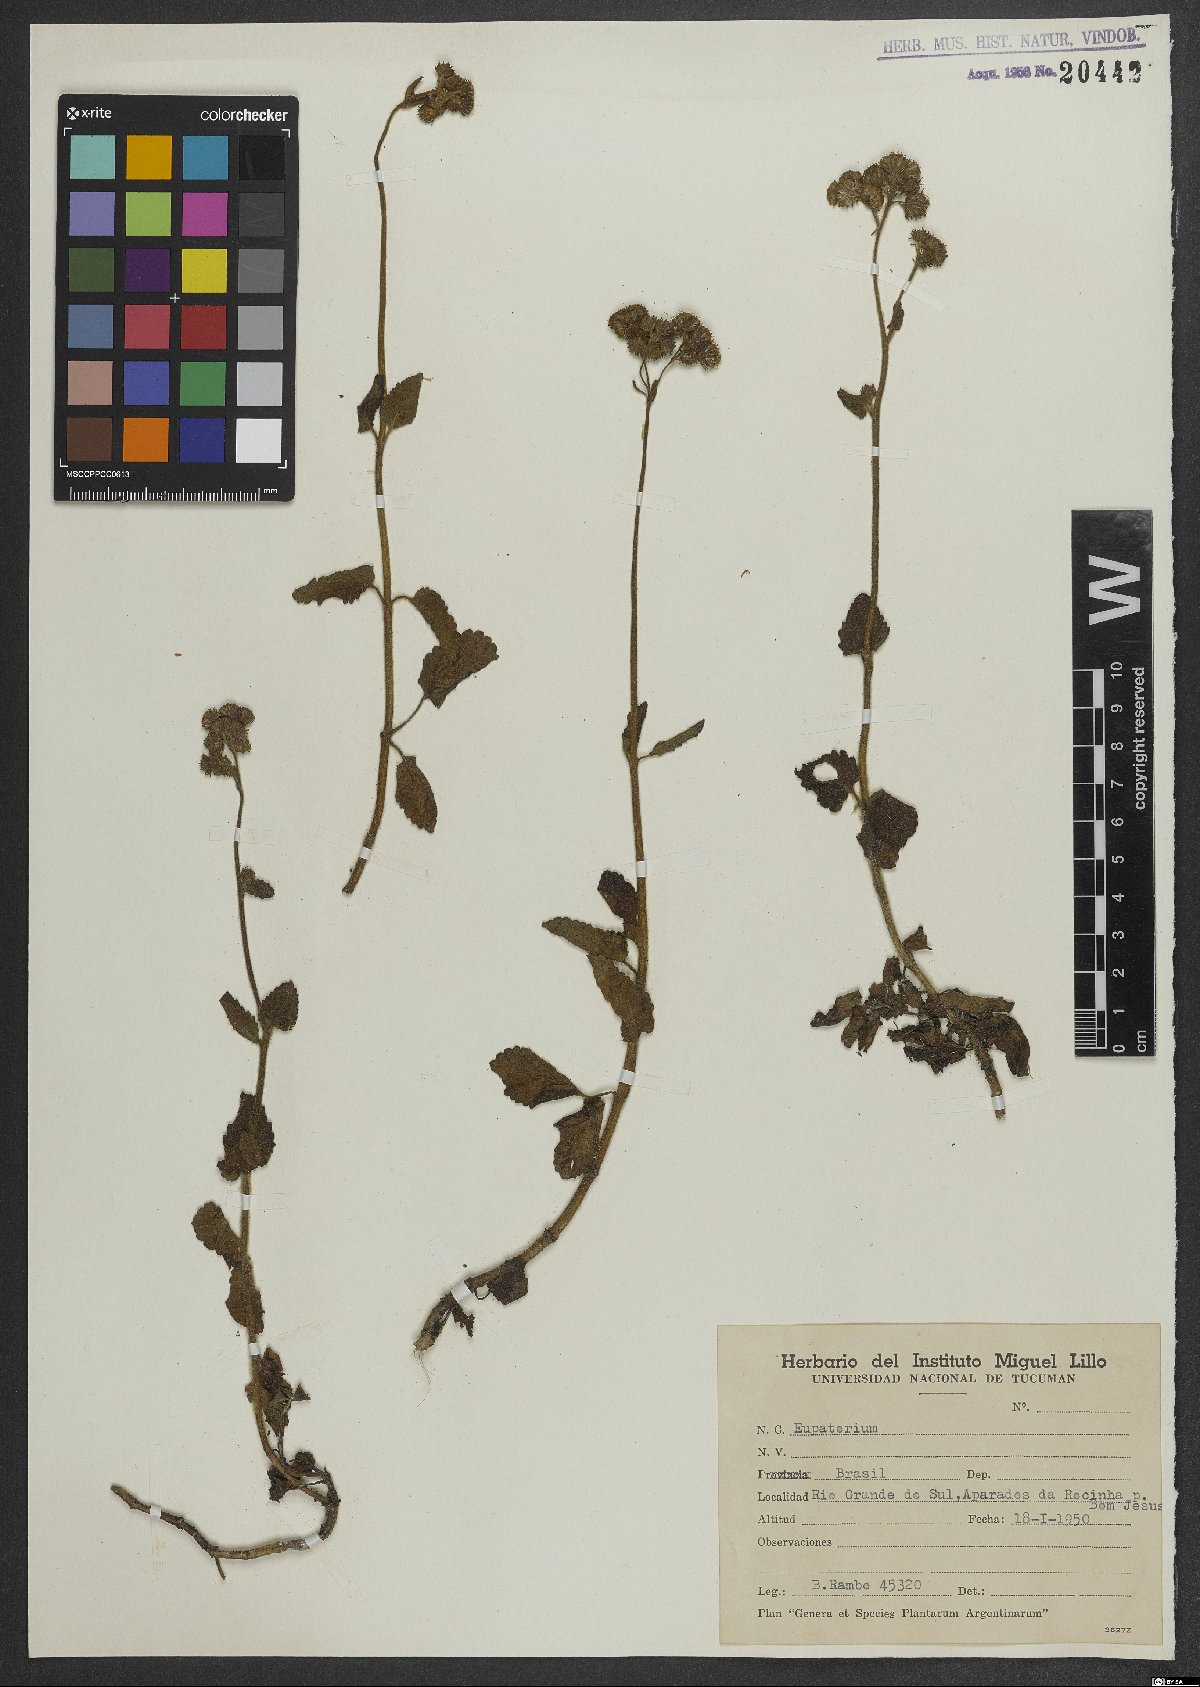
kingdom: Plantae
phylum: Tracheophyta
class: Magnoliopsida
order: Asterales
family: Asteraceae
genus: Eupatorium
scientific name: Eupatorium
